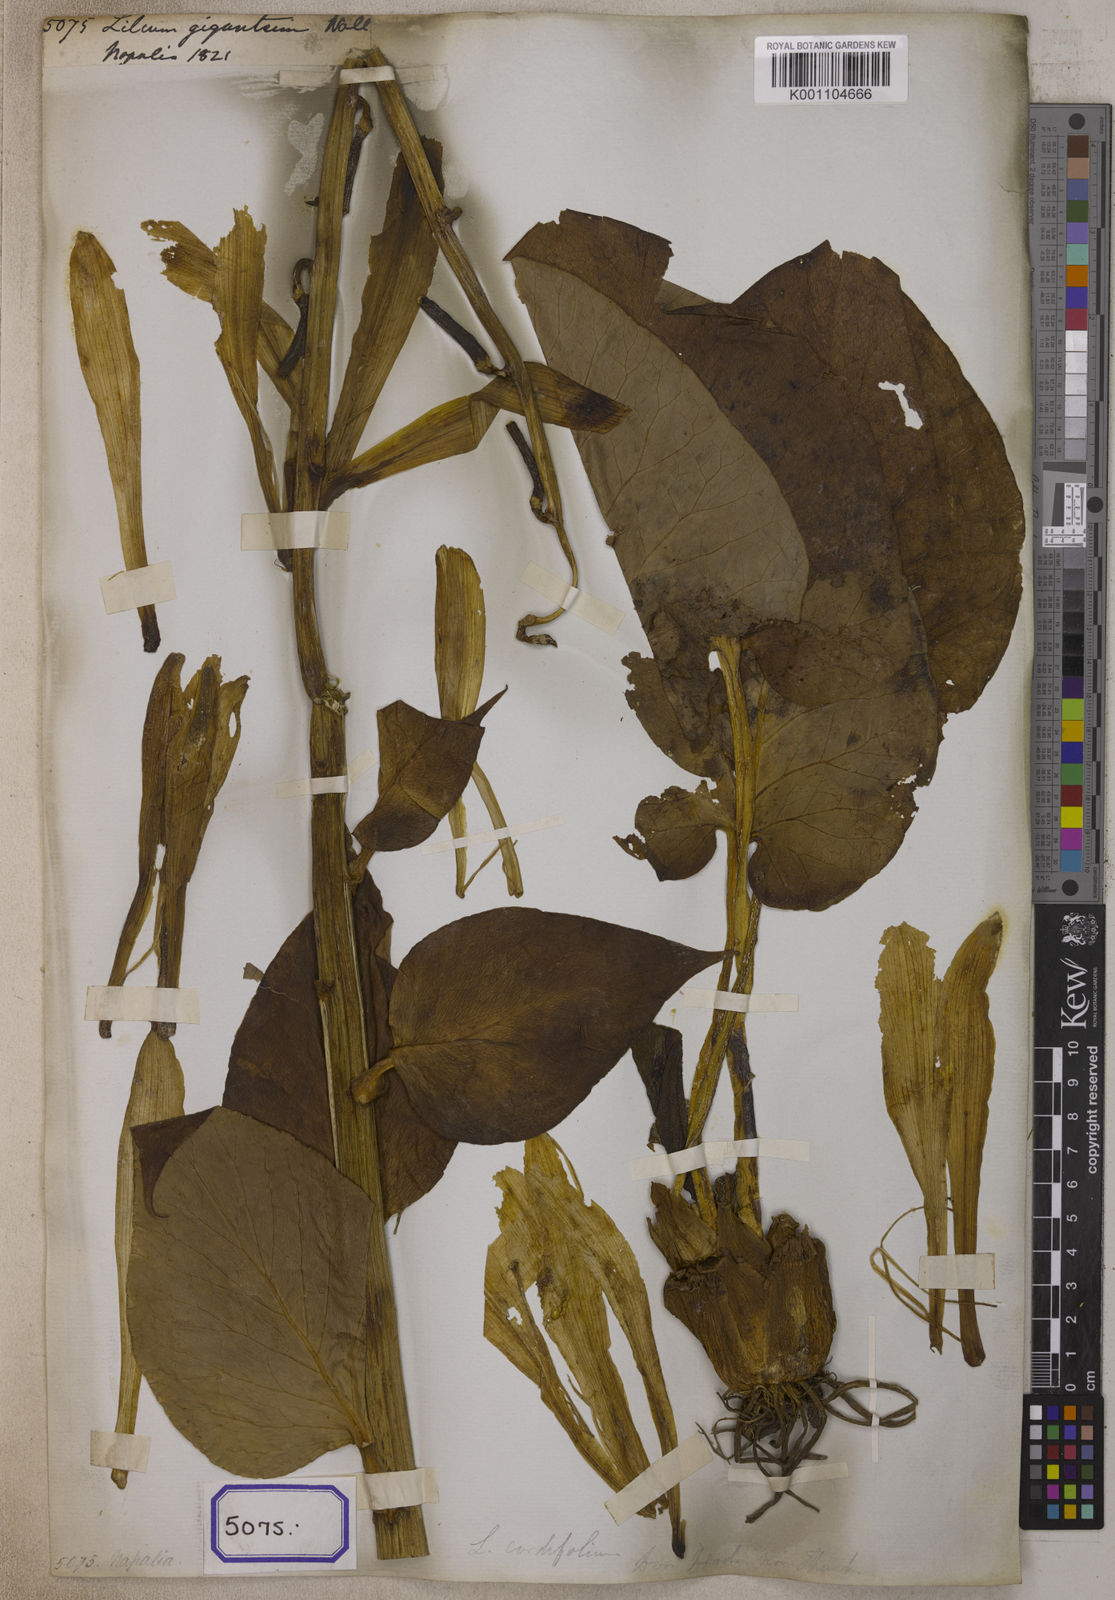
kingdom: Plantae
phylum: Tracheophyta
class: Liliopsida
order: Liliales
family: Liliaceae
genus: Cardiocrinum
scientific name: Cardiocrinum giganteum
